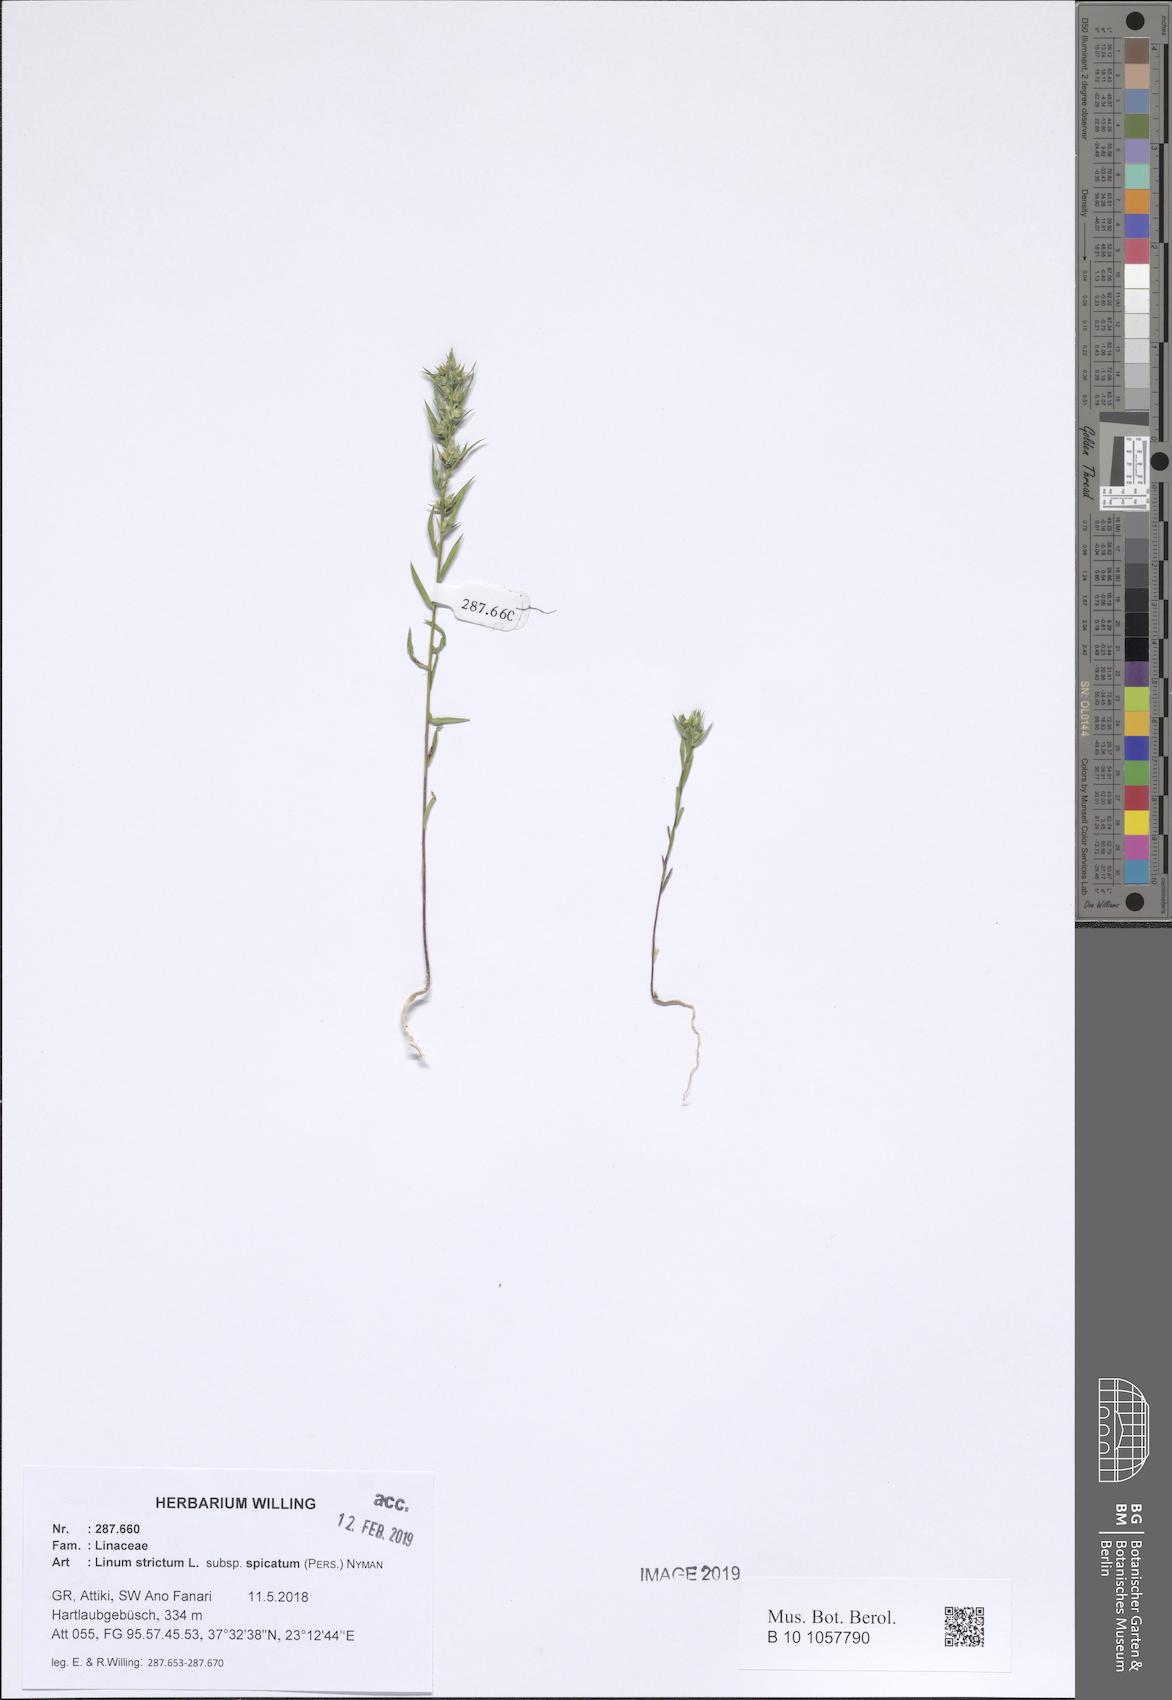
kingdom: Plantae
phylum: Tracheophyta
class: Magnoliopsida
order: Malpighiales
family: Linaceae
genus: Linum
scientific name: Linum strictum
